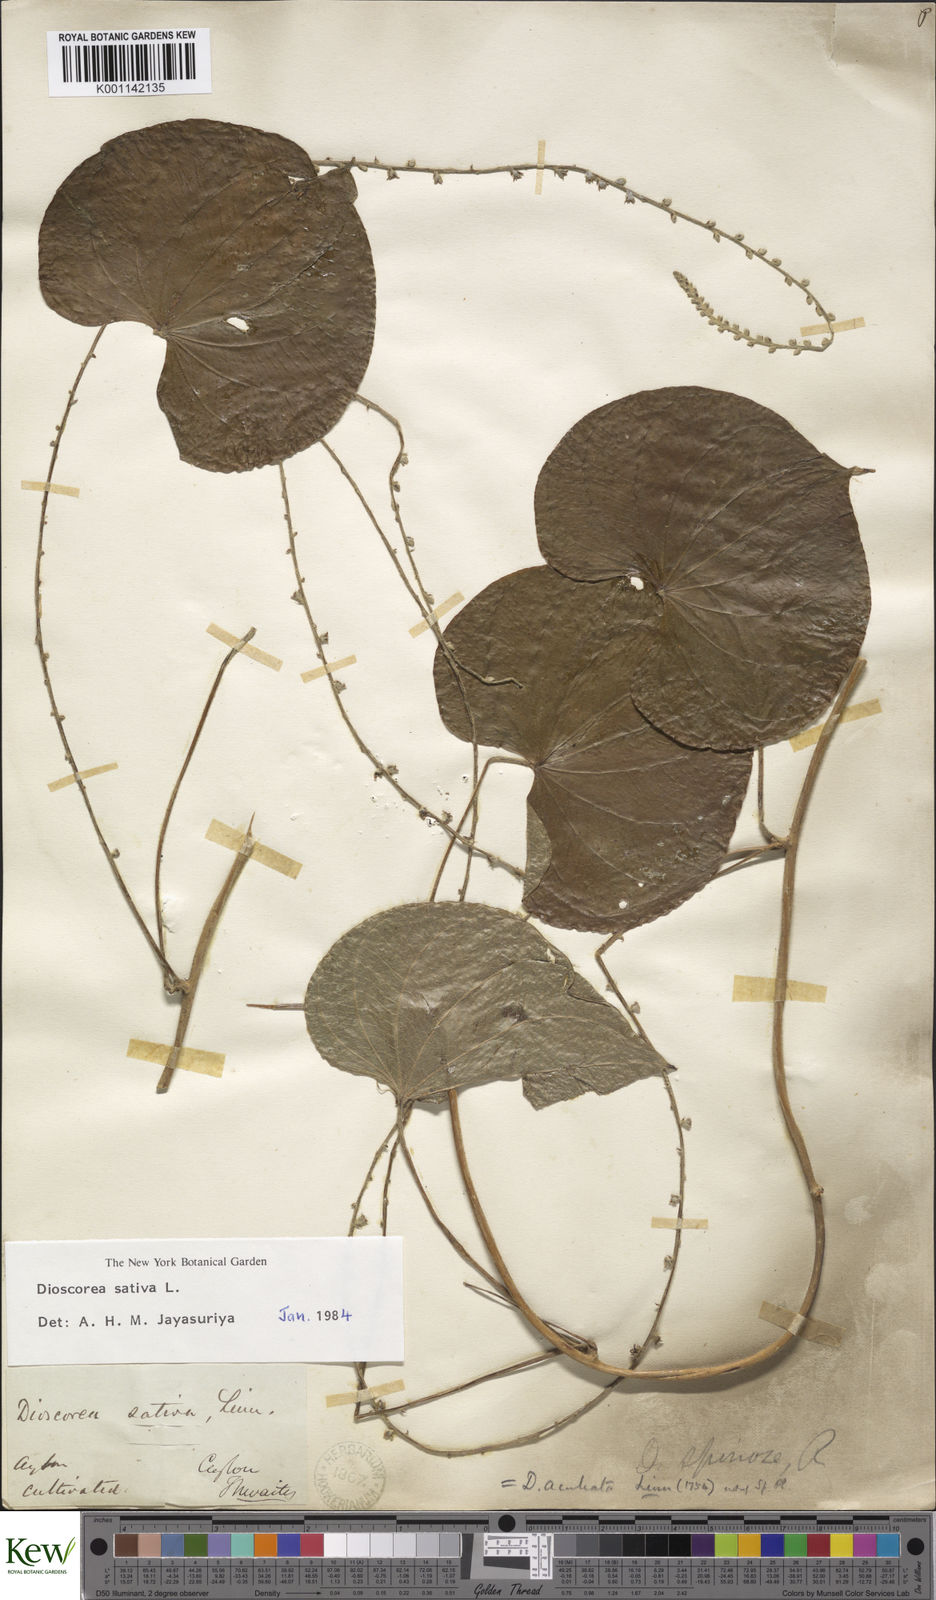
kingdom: Plantae
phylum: Tracheophyta
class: Liliopsida
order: Dioscoreales
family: Dioscoreaceae
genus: Dioscorea
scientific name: Dioscorea esculenta
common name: Chinese yam
